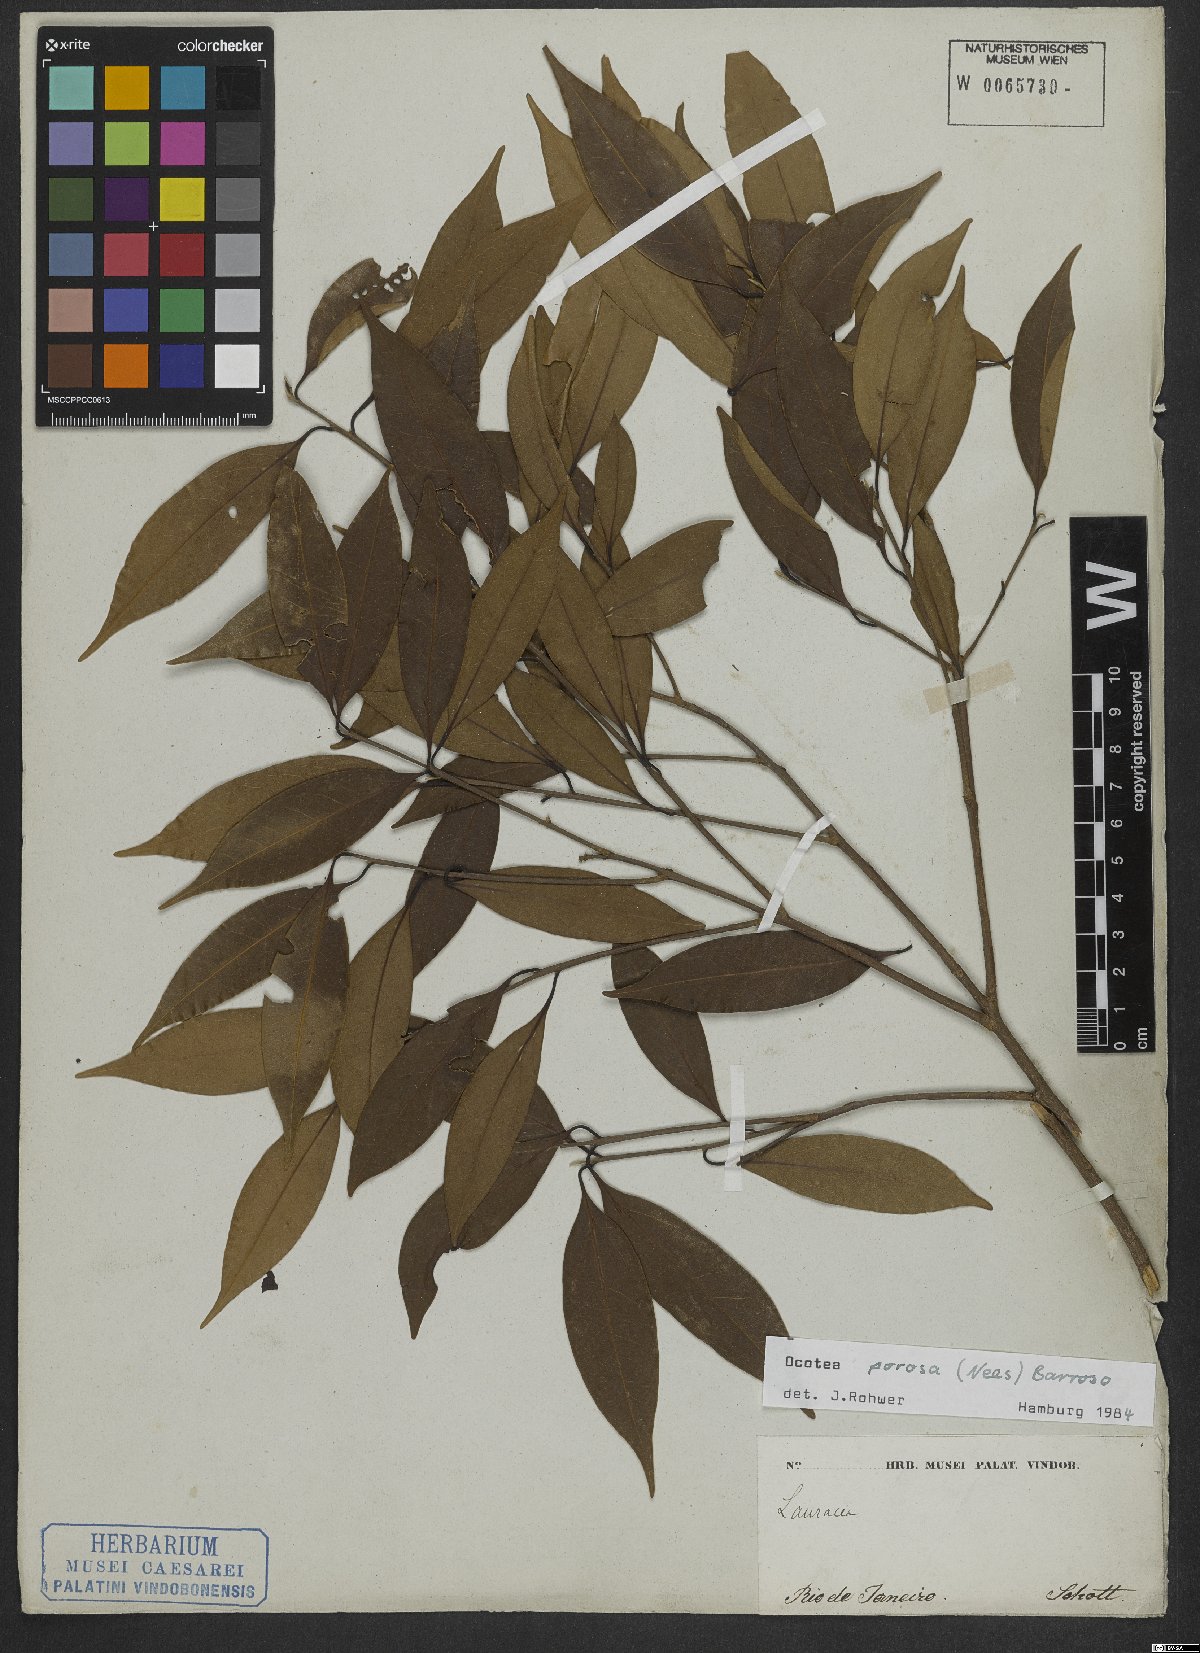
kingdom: Plantae
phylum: Tracheophyta
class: Magnoliopsida
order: Laurales
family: Lauraceae
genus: Ocotea
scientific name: Ocotea porosa
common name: Brazilian-walnut
